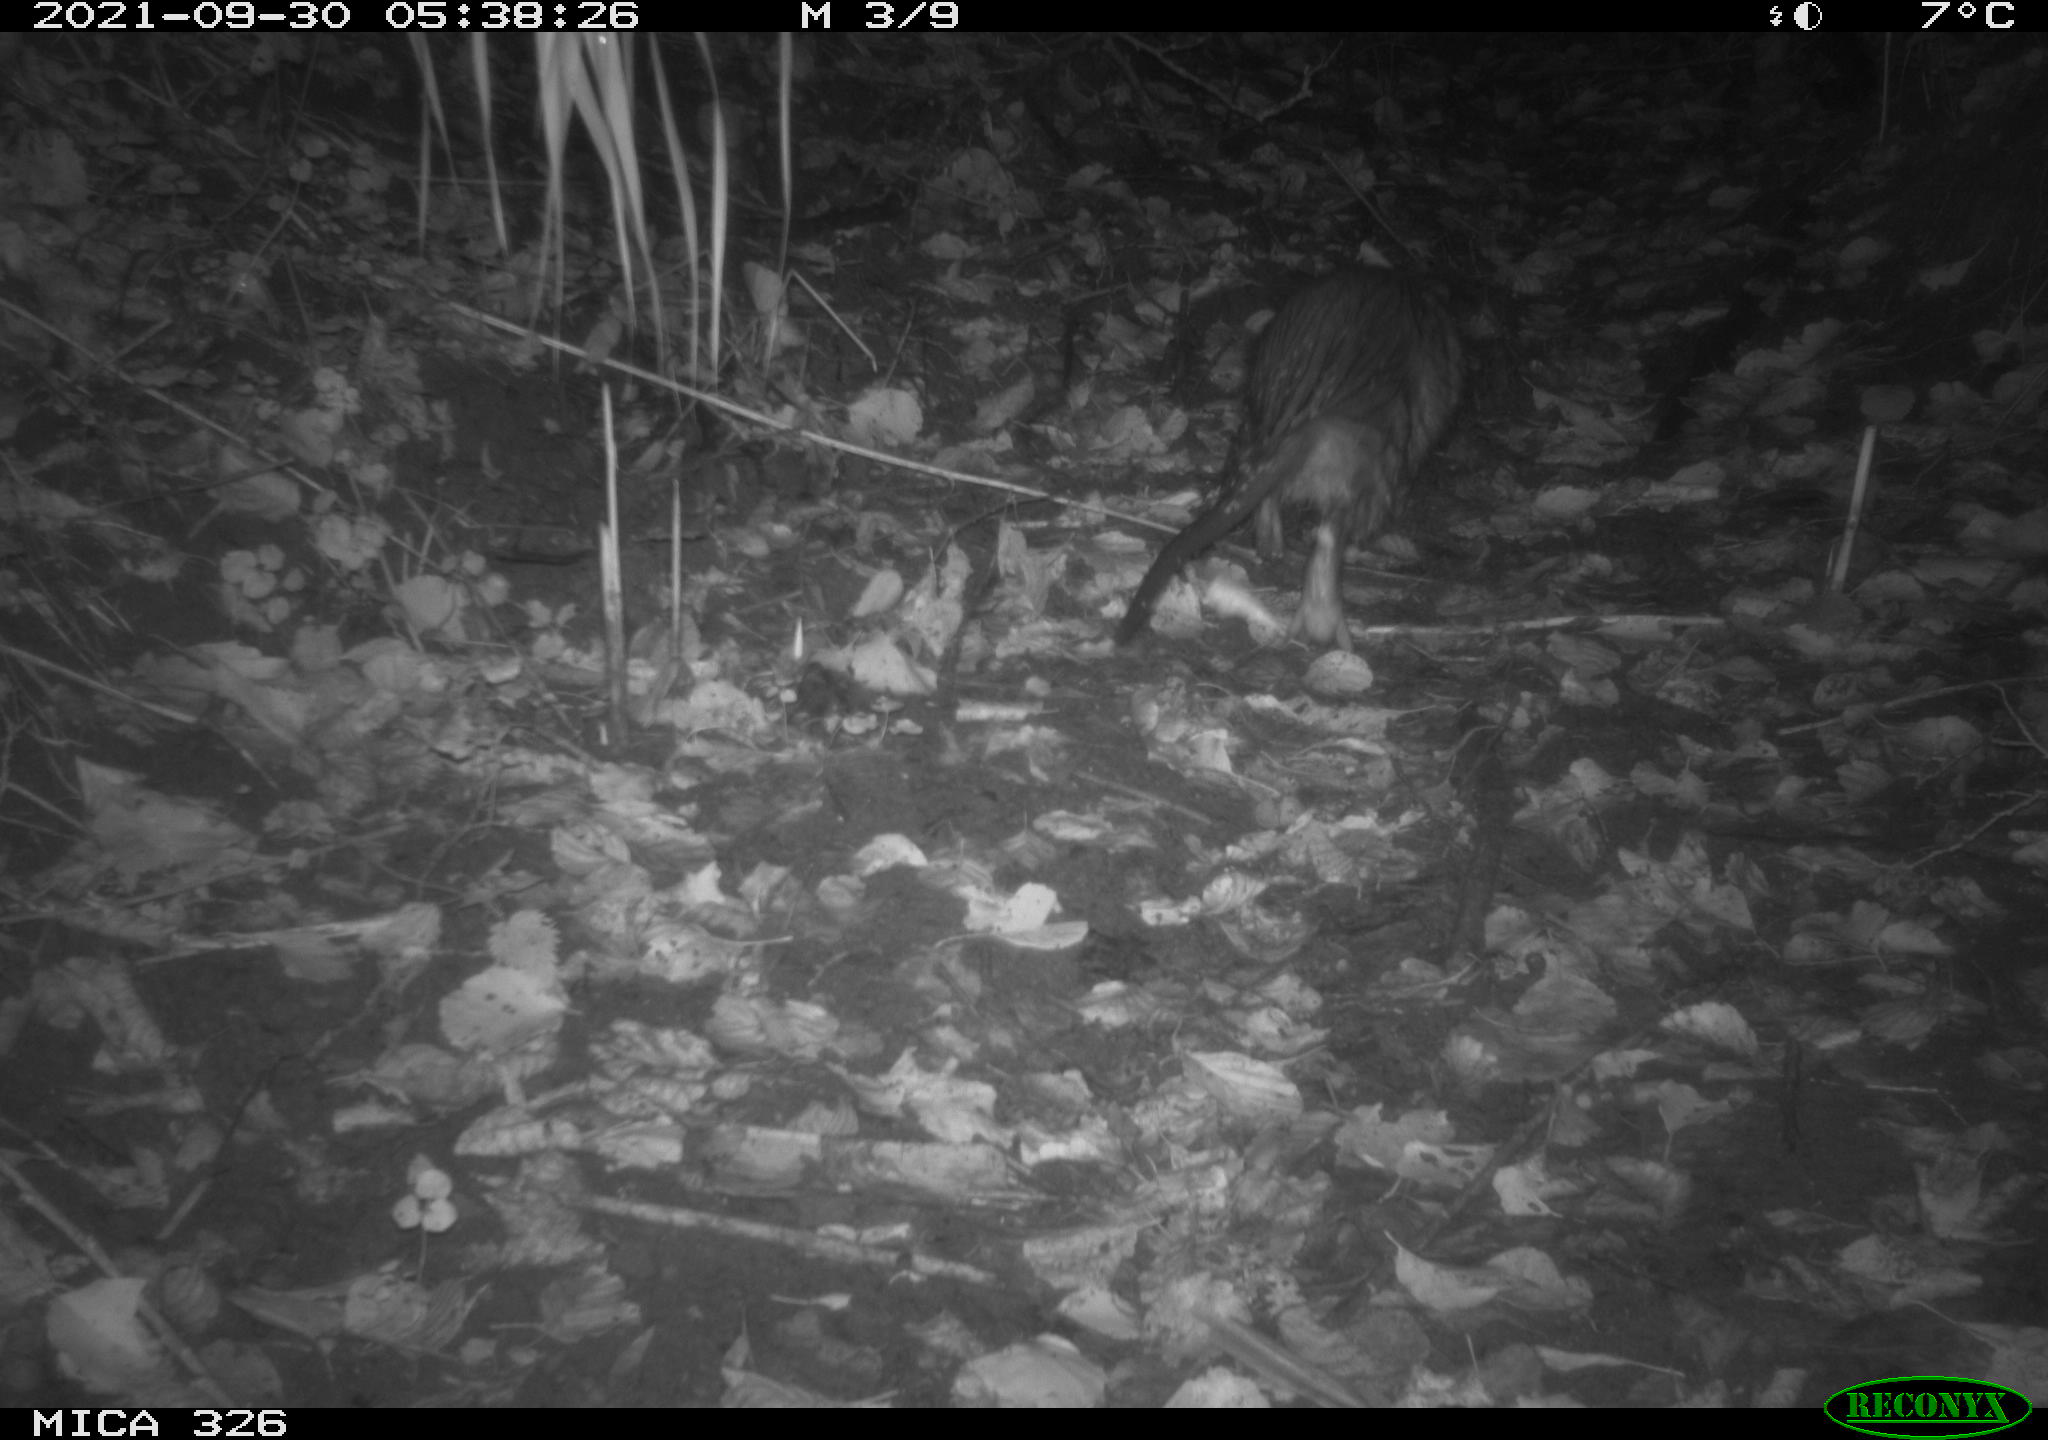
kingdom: Animalia
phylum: Chordata
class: Mammalia
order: Rodentia
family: Myocastoridae
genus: Myocastor
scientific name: Myocastor coypus
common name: Coypu
